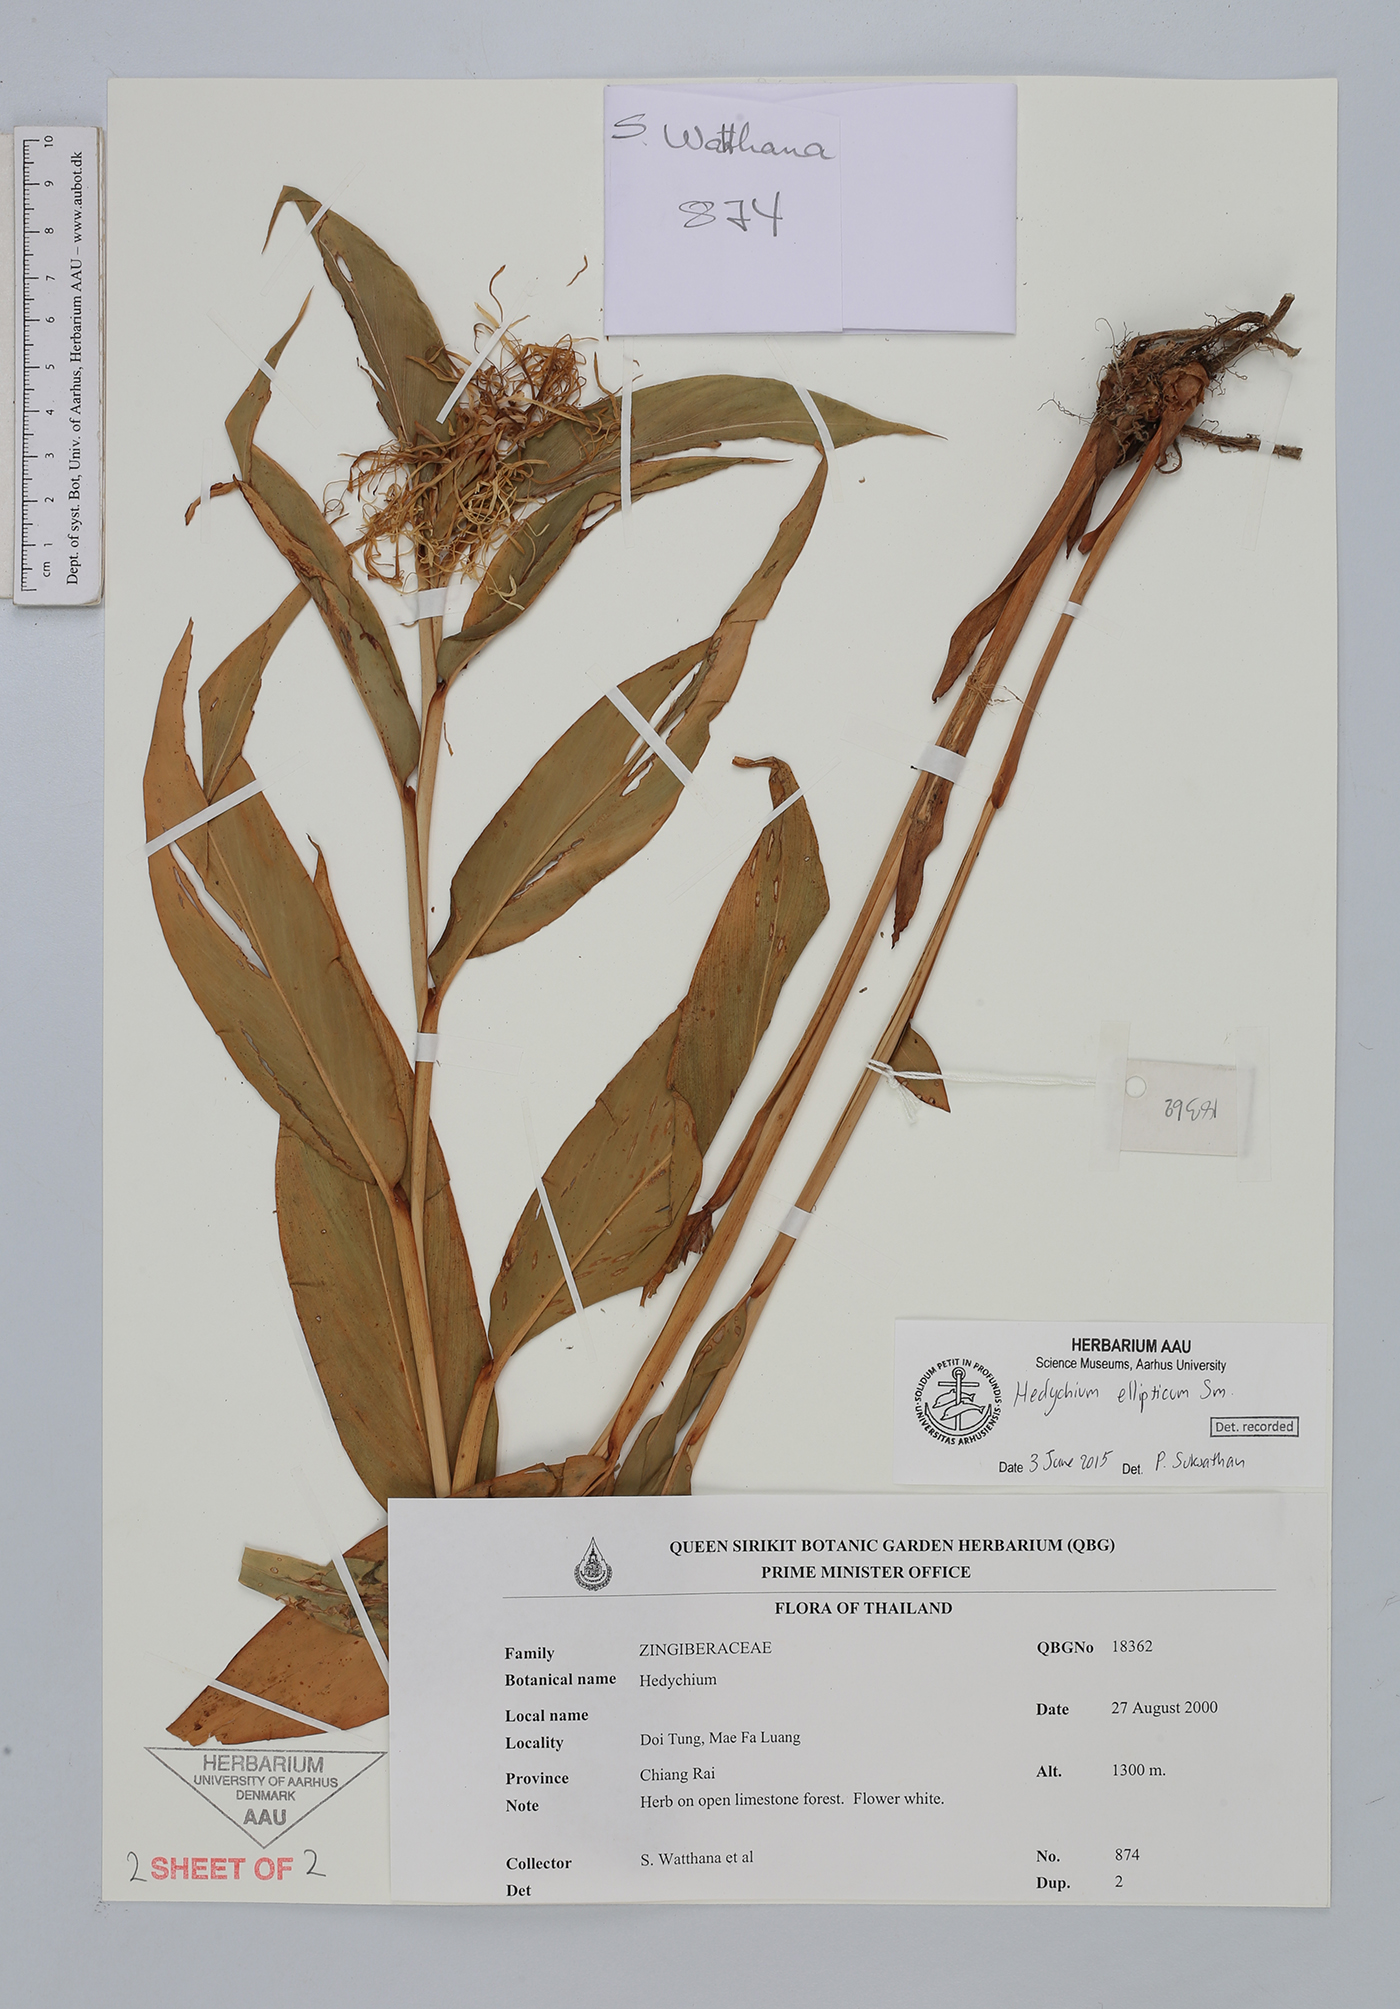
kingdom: Plantae
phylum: Tracheophyta
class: Liliopsida
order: Zingiberales
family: Zingiberaceae
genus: Hedychium
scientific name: Hedychium ellipticum
